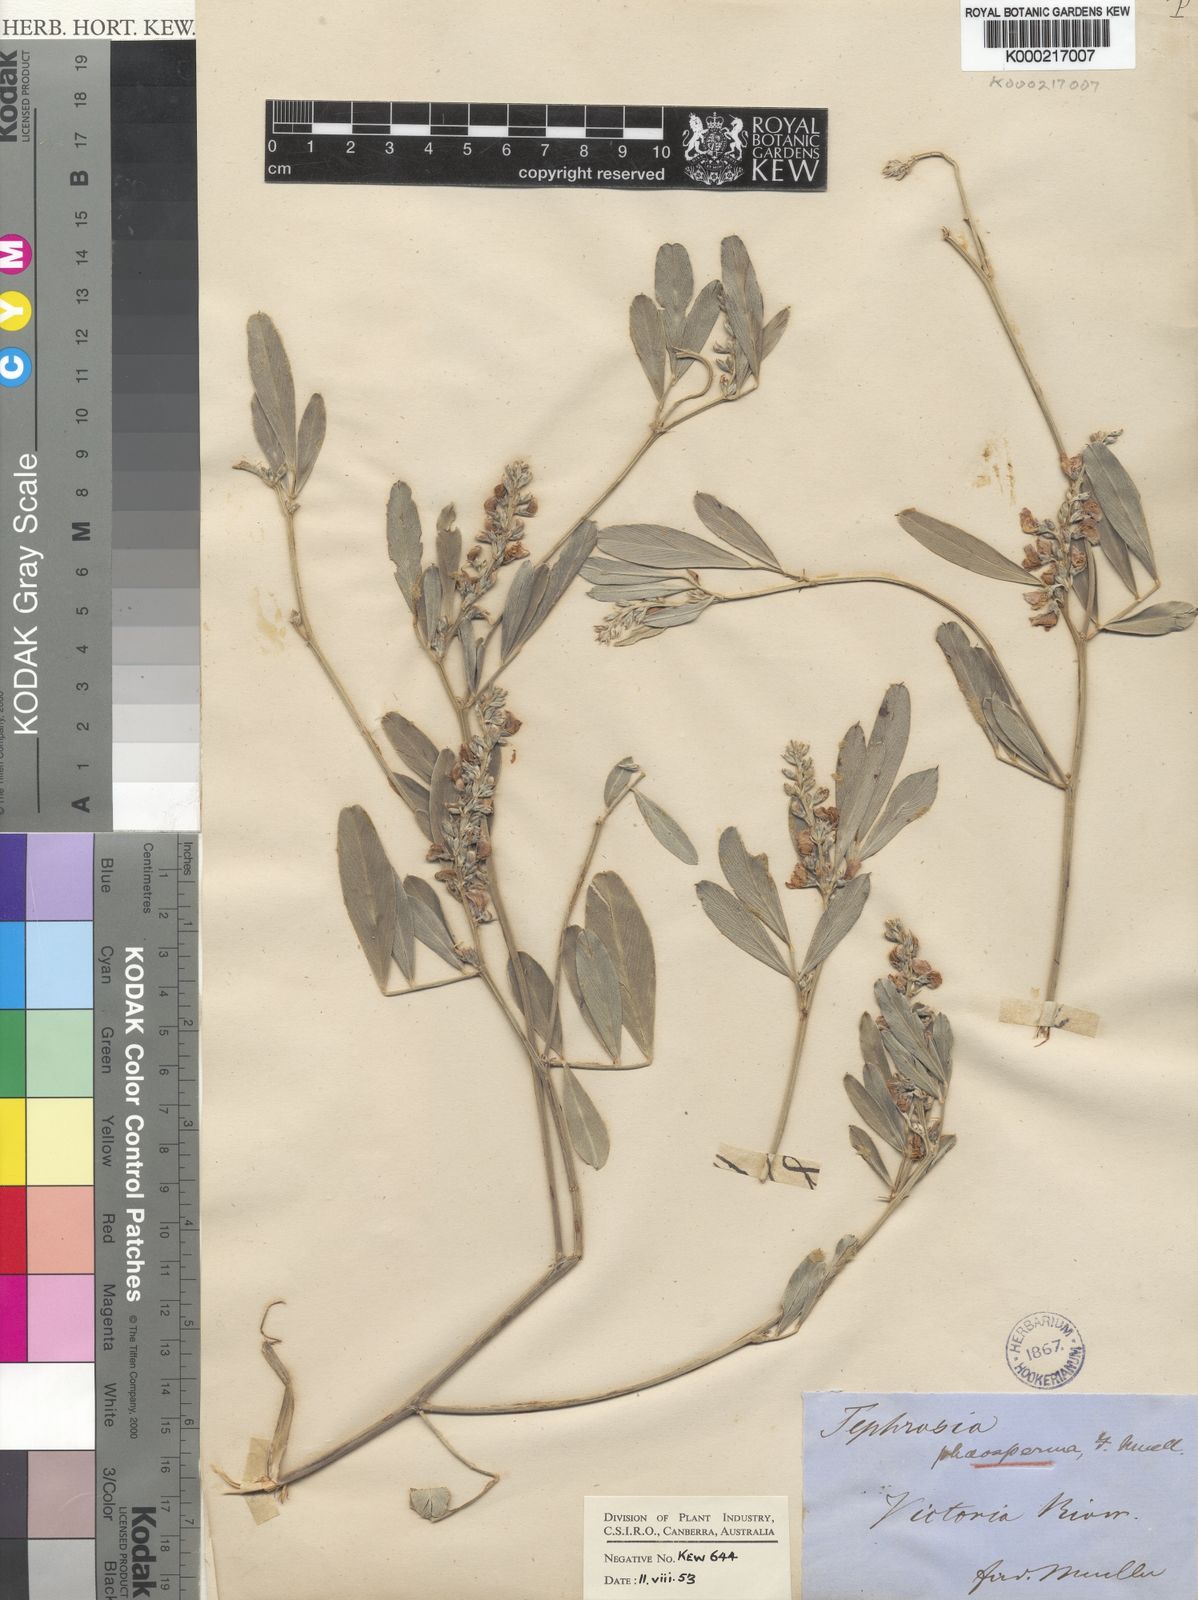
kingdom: Plantae
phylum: Tracheophyta
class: Magnoliopsida
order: Fabales
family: Fabaceae
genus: Tephrosia
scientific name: Tephrosia phaeosperma
